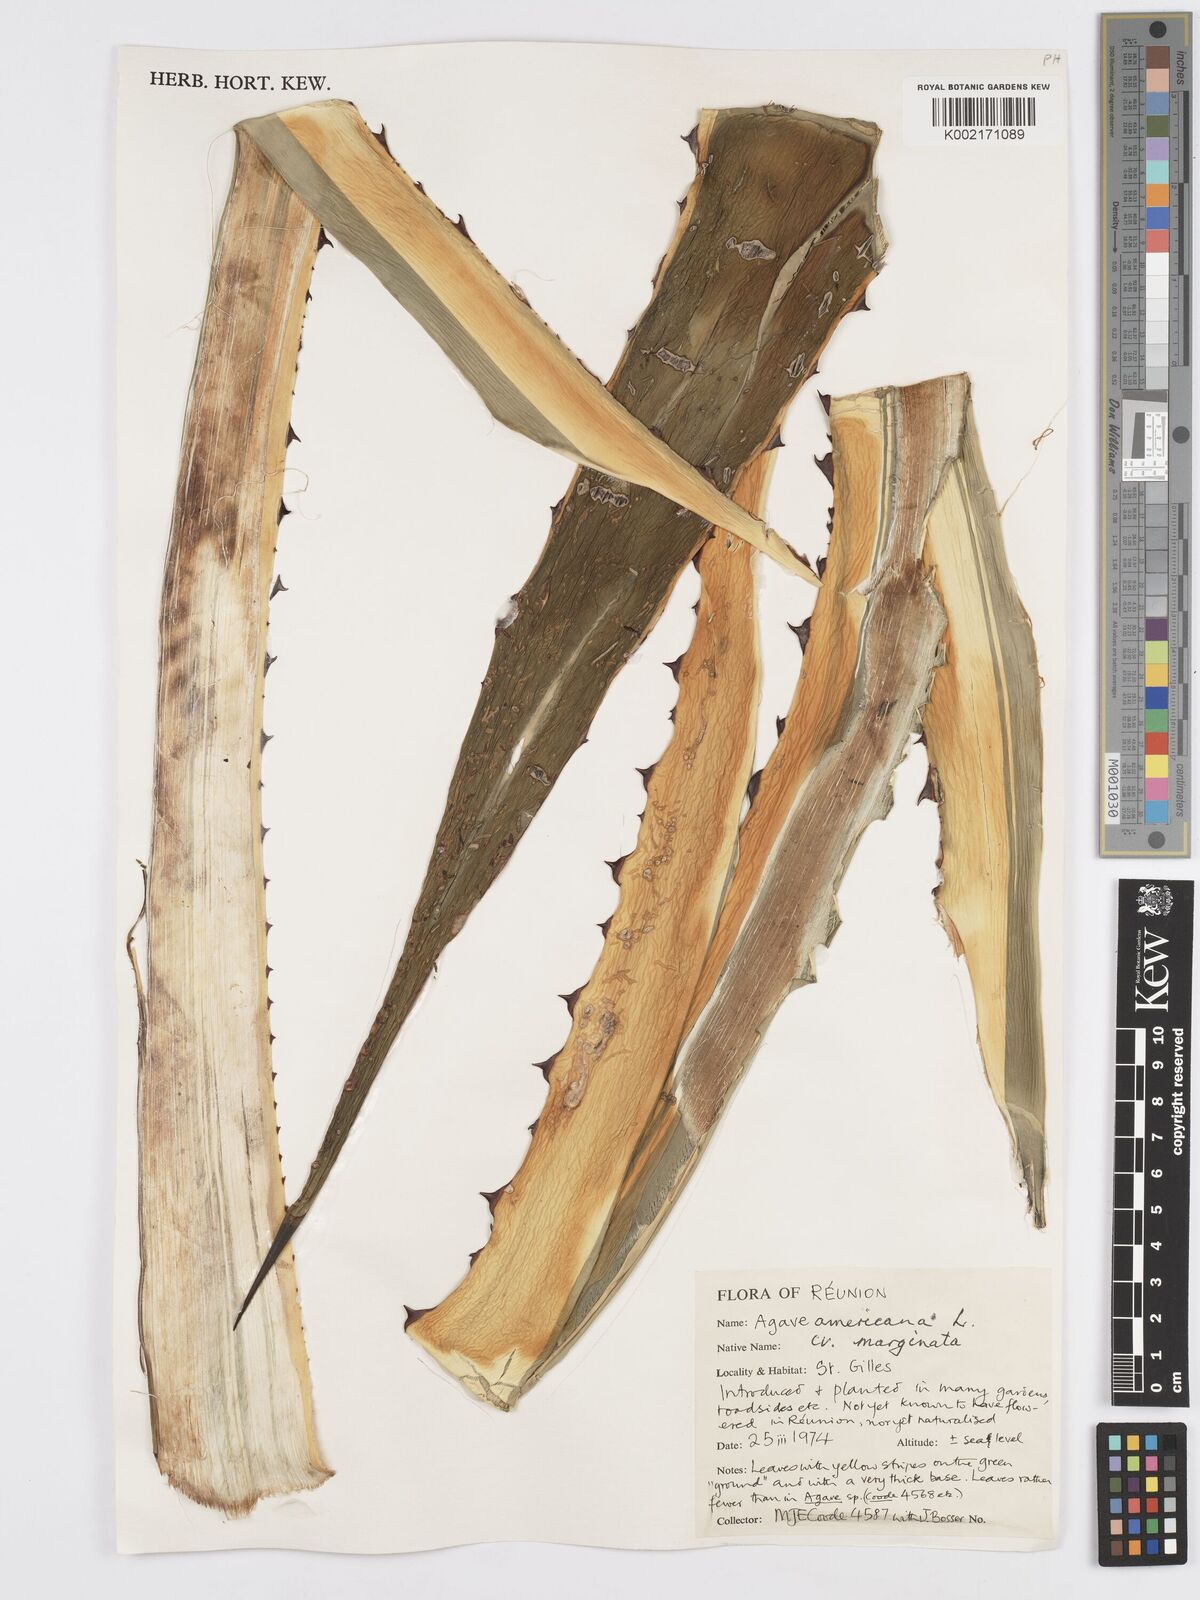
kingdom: Plantae
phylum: Tracheophyta
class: Liliopsida
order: Asparagales
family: Asparagaceae
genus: Agave
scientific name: Agave americana
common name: Centuryplant
